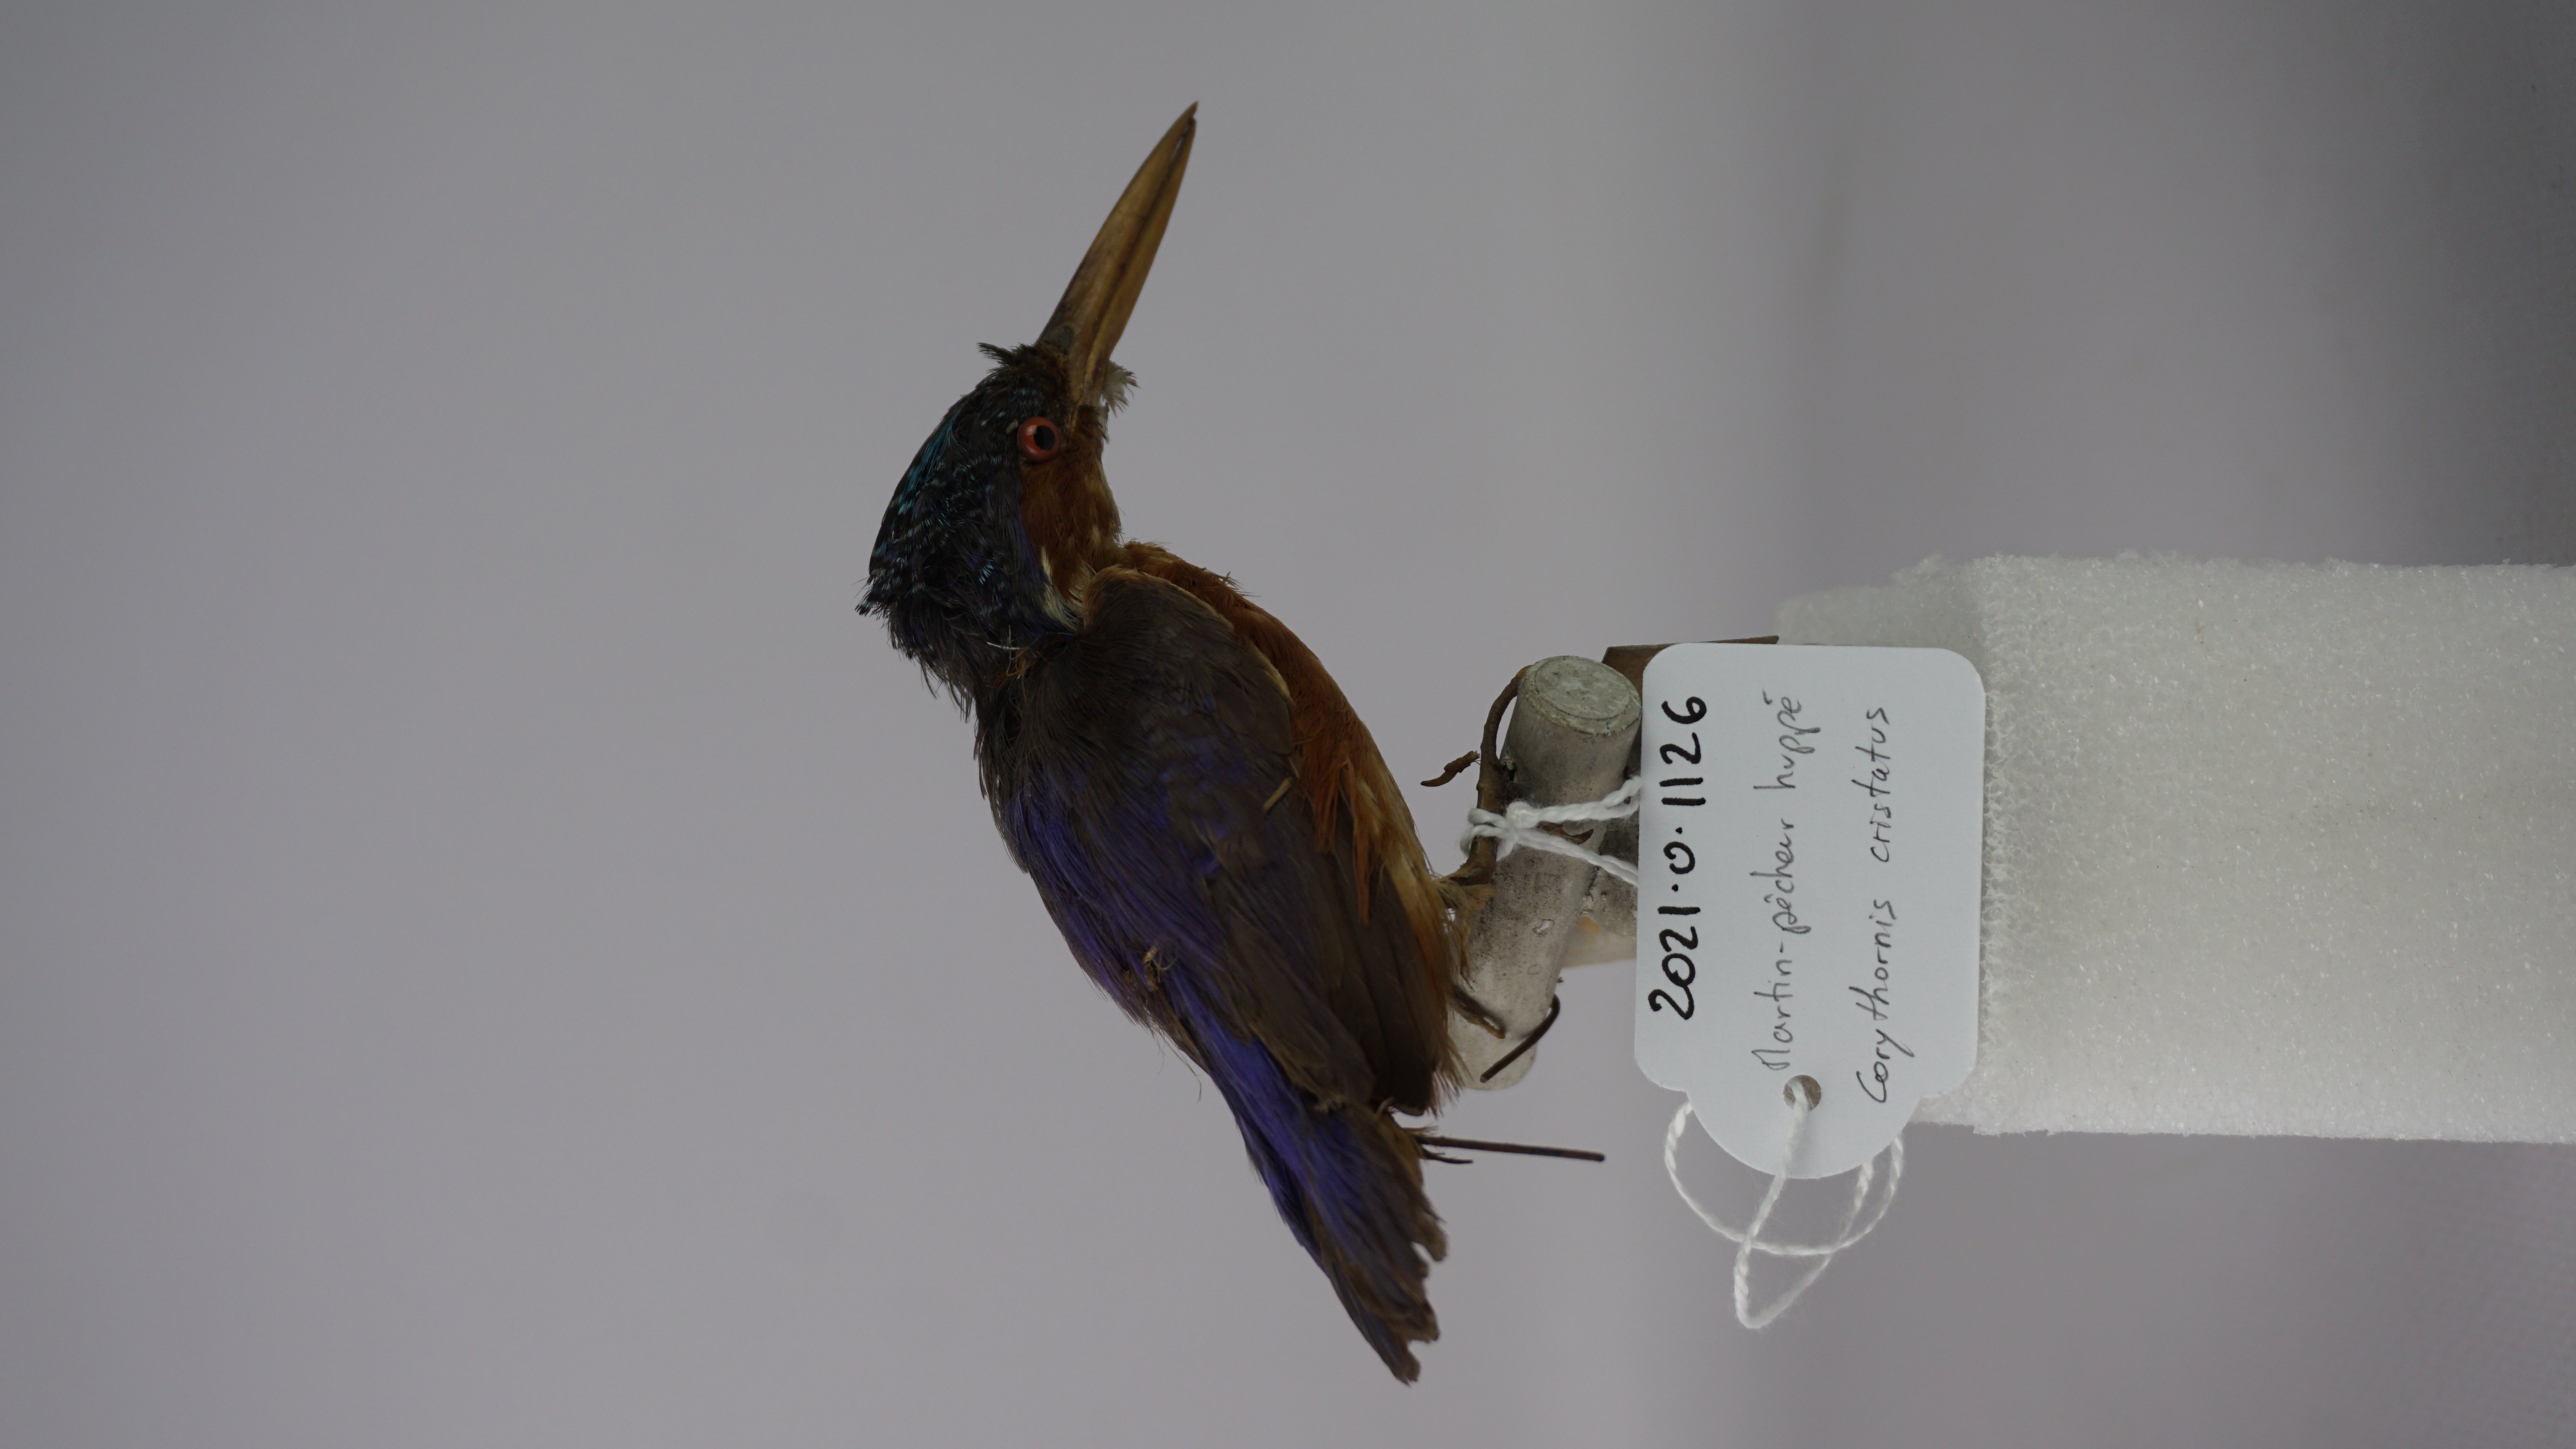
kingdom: Animalia
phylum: Chordata
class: Aves
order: Coraciiformes
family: Alcedinidae
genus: Corythornis
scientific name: Corythornis cristatus
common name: Malachite kingfisher
